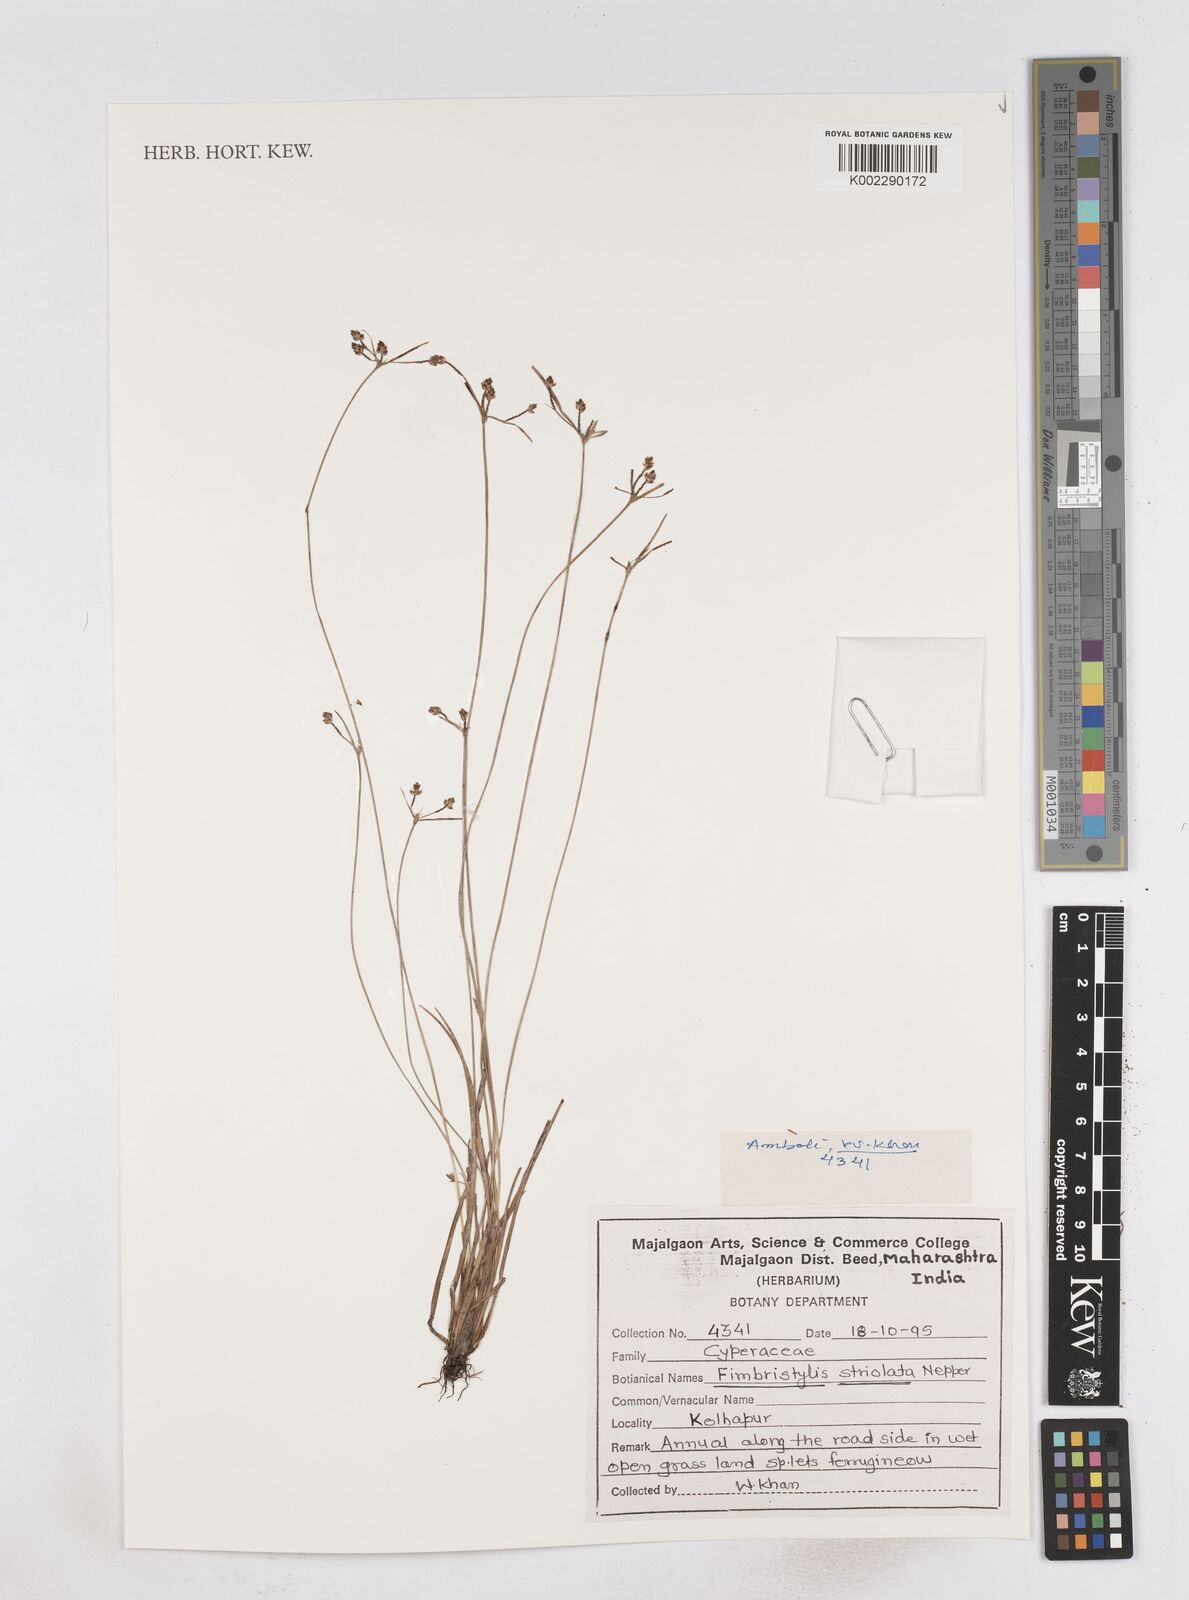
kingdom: Plantae
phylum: Tracheophyta
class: Liliopsida
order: Poales
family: Cyperaceae
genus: Fimbristylis
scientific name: Fimbristylis striolata
